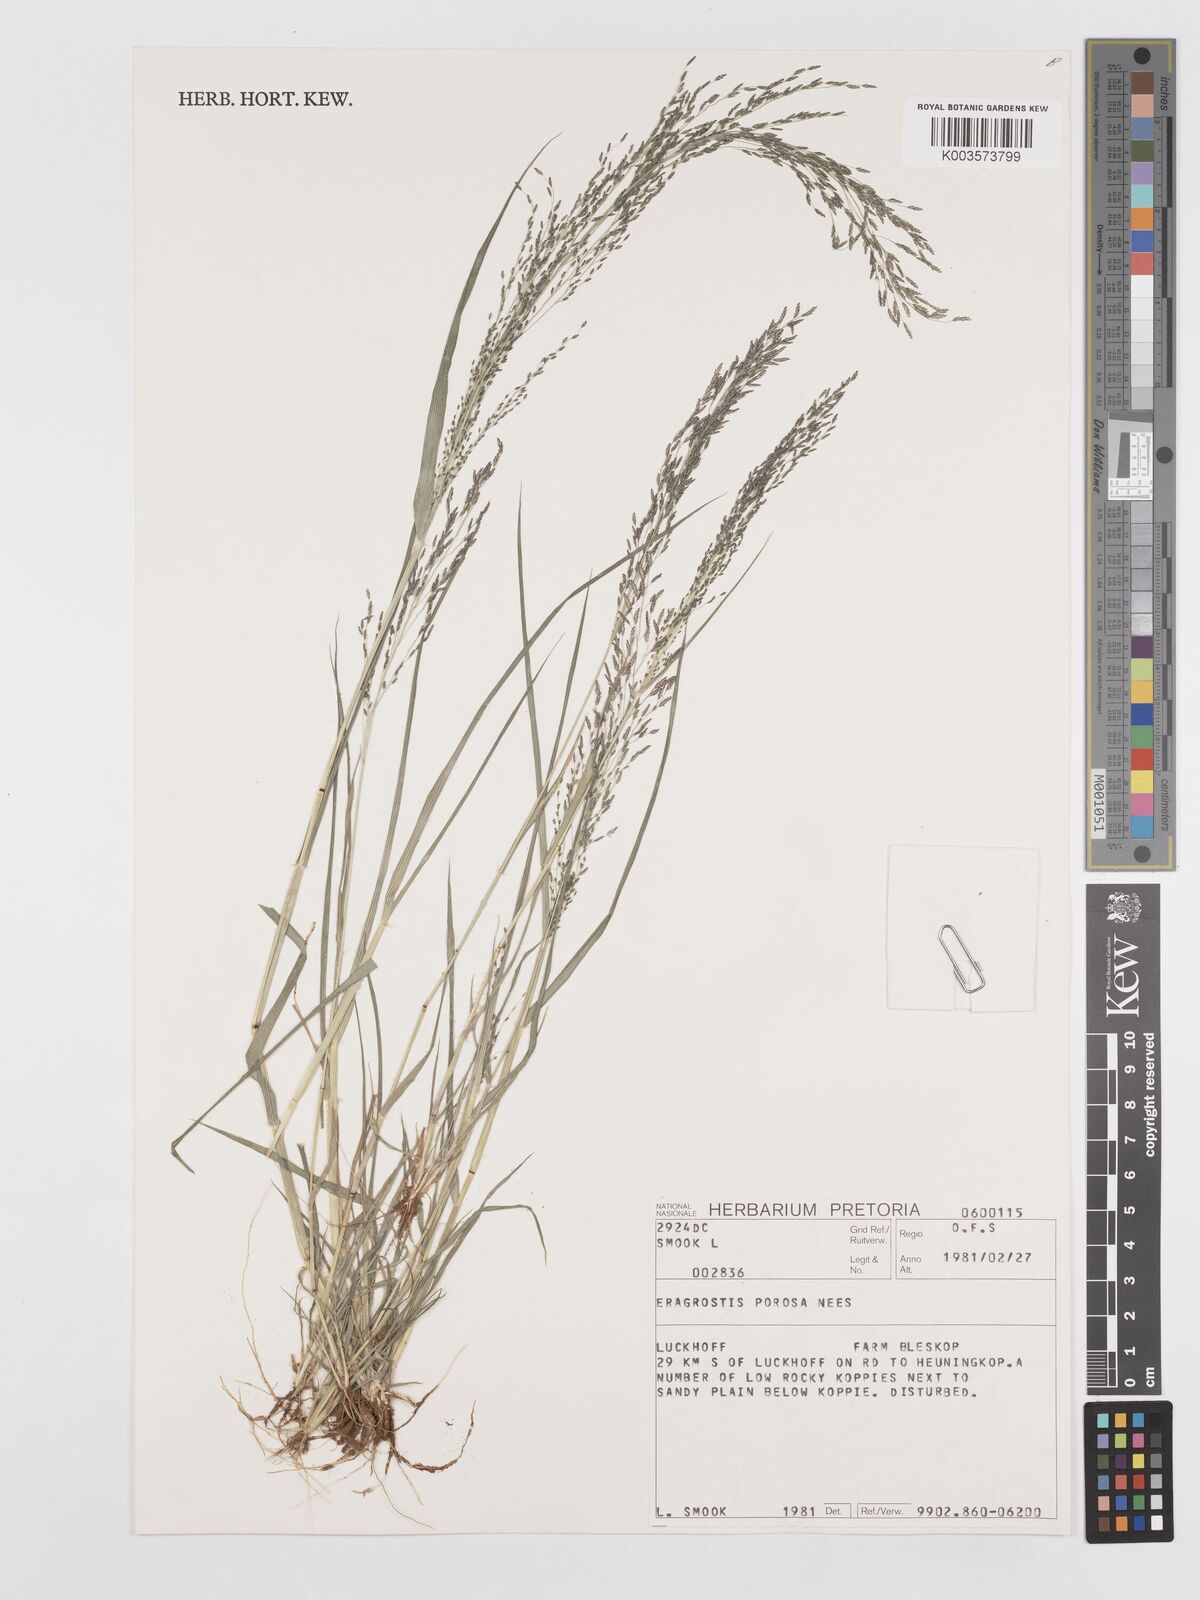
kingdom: Plantae
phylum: Tracheophyta
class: Liliopsida
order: Poales
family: Poaceae
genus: Eragrostis
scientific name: Eragrostis porosa
